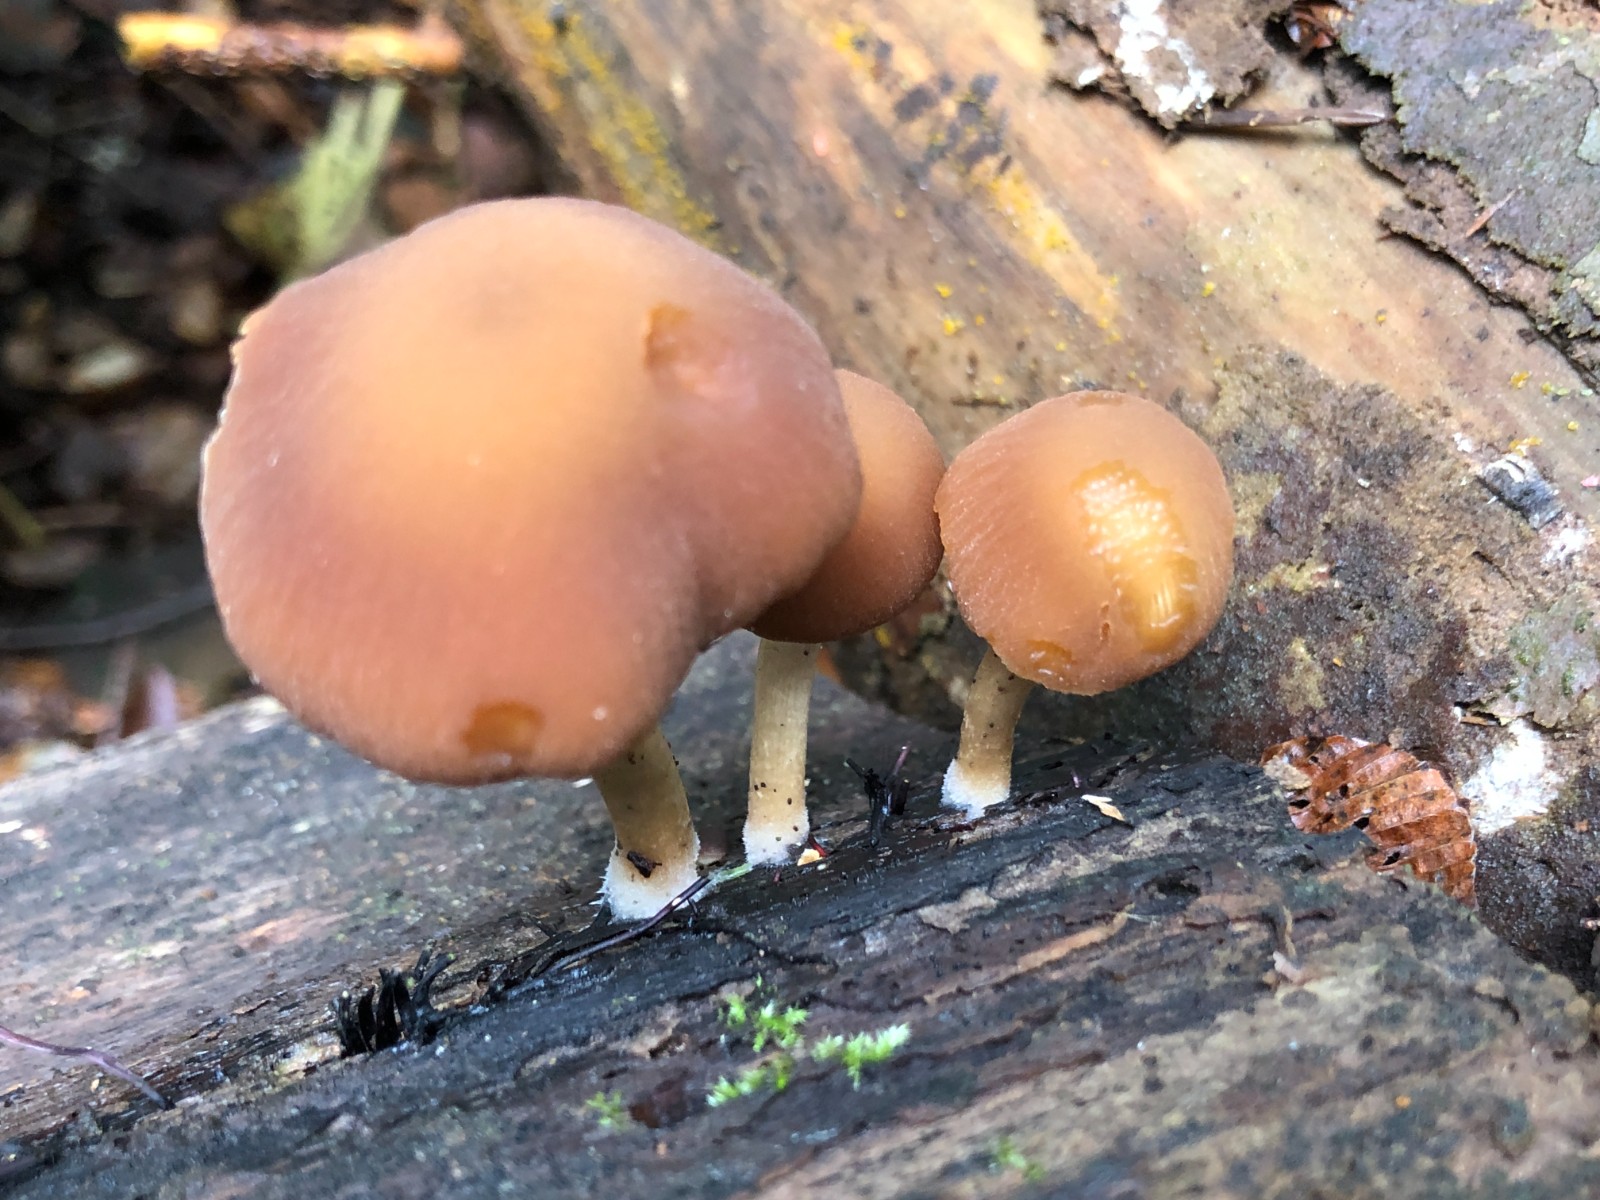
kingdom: Fungi
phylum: Basidiomycota
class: Agaricomycetes
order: Agaricales
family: Psathyrellaceae
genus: Psathyrella
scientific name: Psathyrella piluliformis
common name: lysstokket mørkhat
